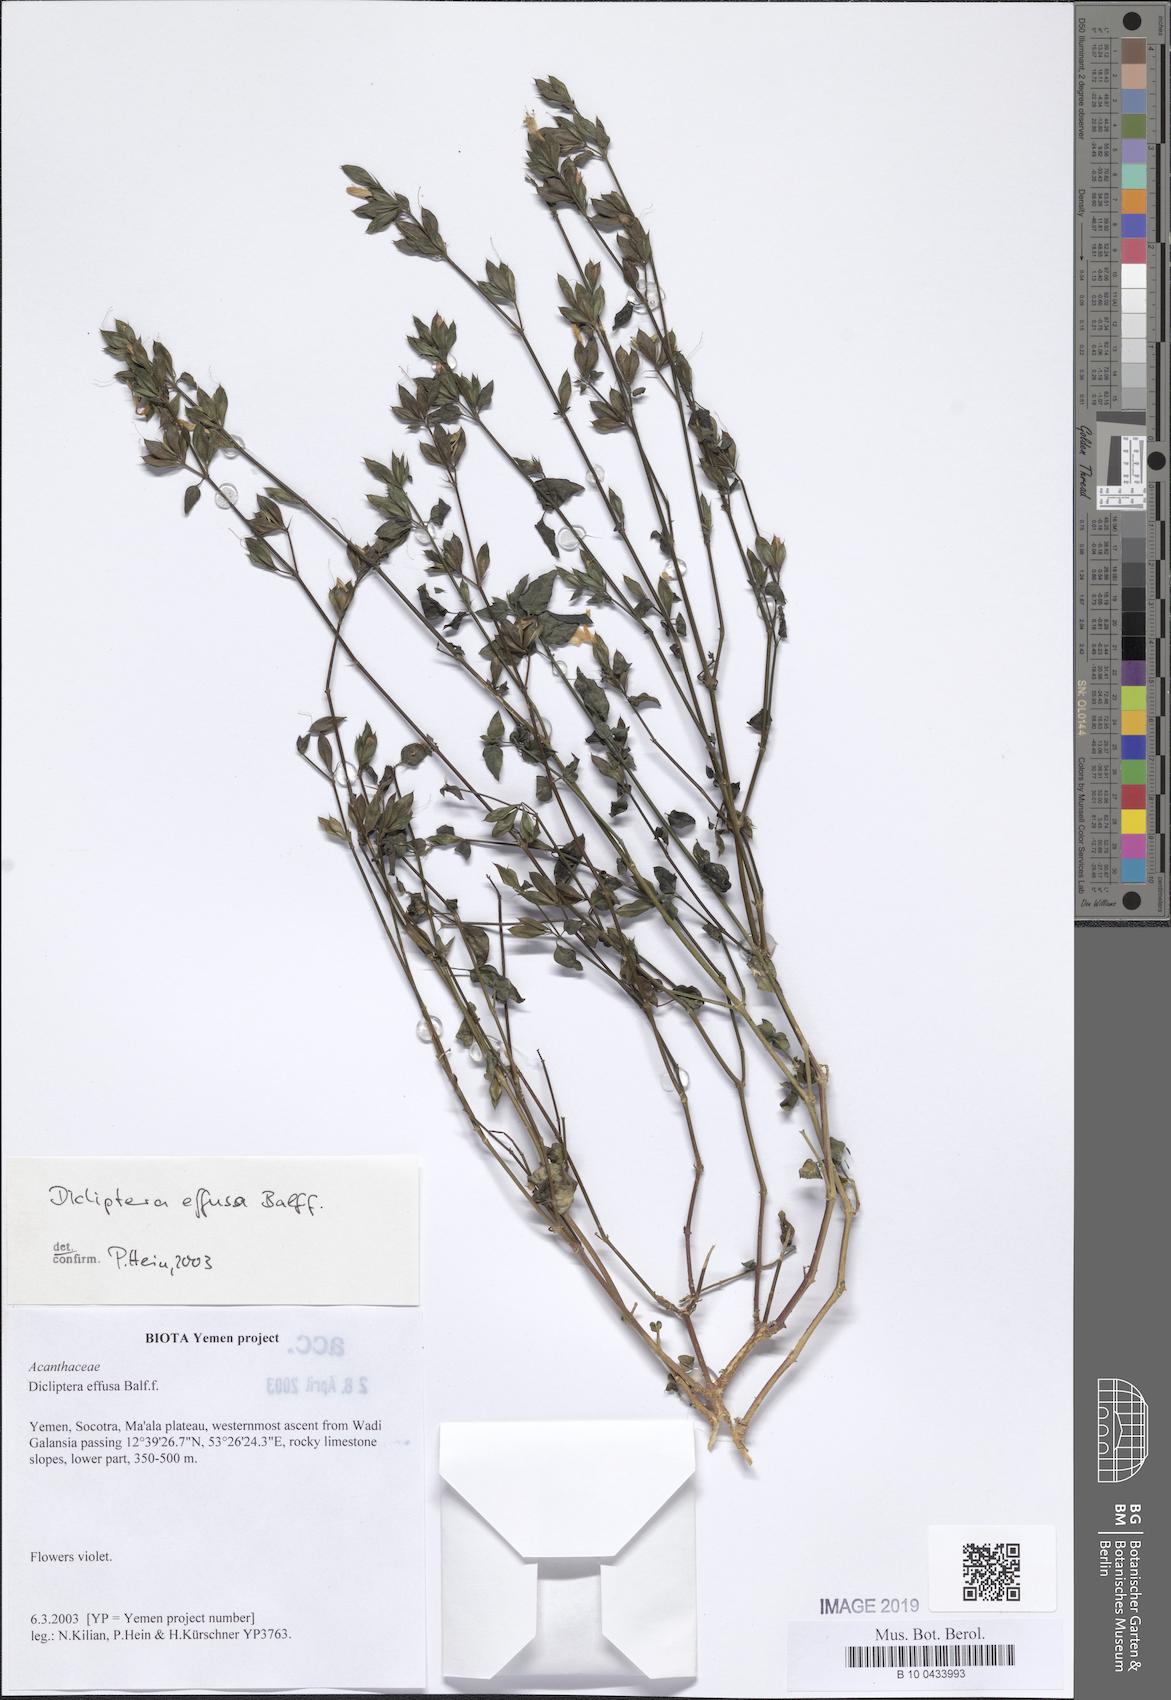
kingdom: Plantae
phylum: Tracheophyta
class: Magnoliopsida
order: Lamiales
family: Acanthaceae
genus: Dicliptera
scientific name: Dicliptera effusa
